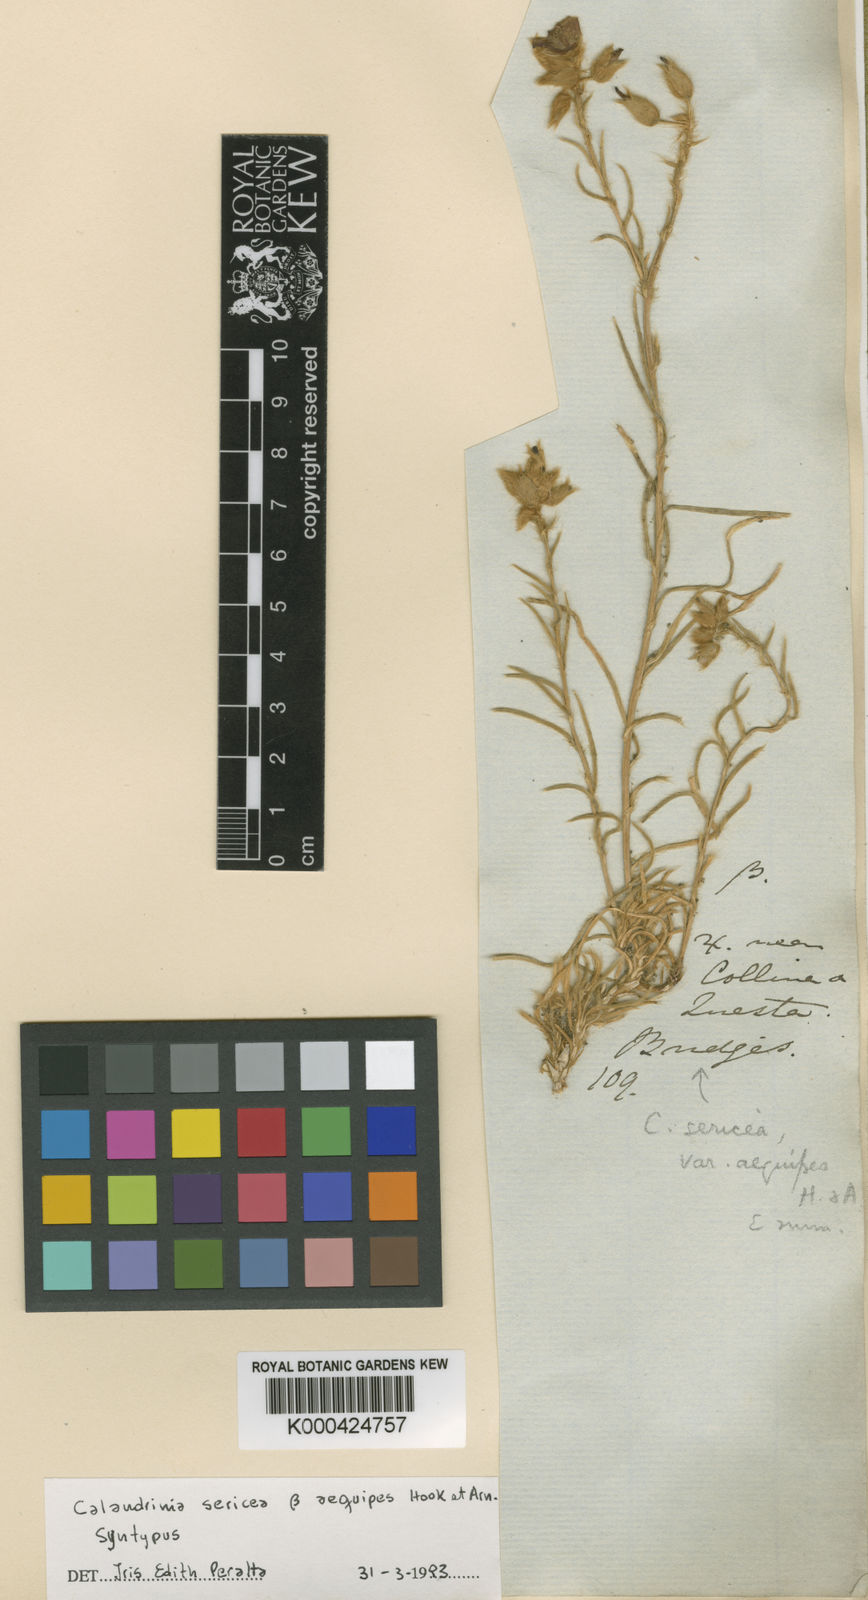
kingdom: Plantae
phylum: Tracheophyta
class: Magnoliopsida
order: Caryophyllales
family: Montiaceae
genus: Montiopsis
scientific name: Montiopsis
